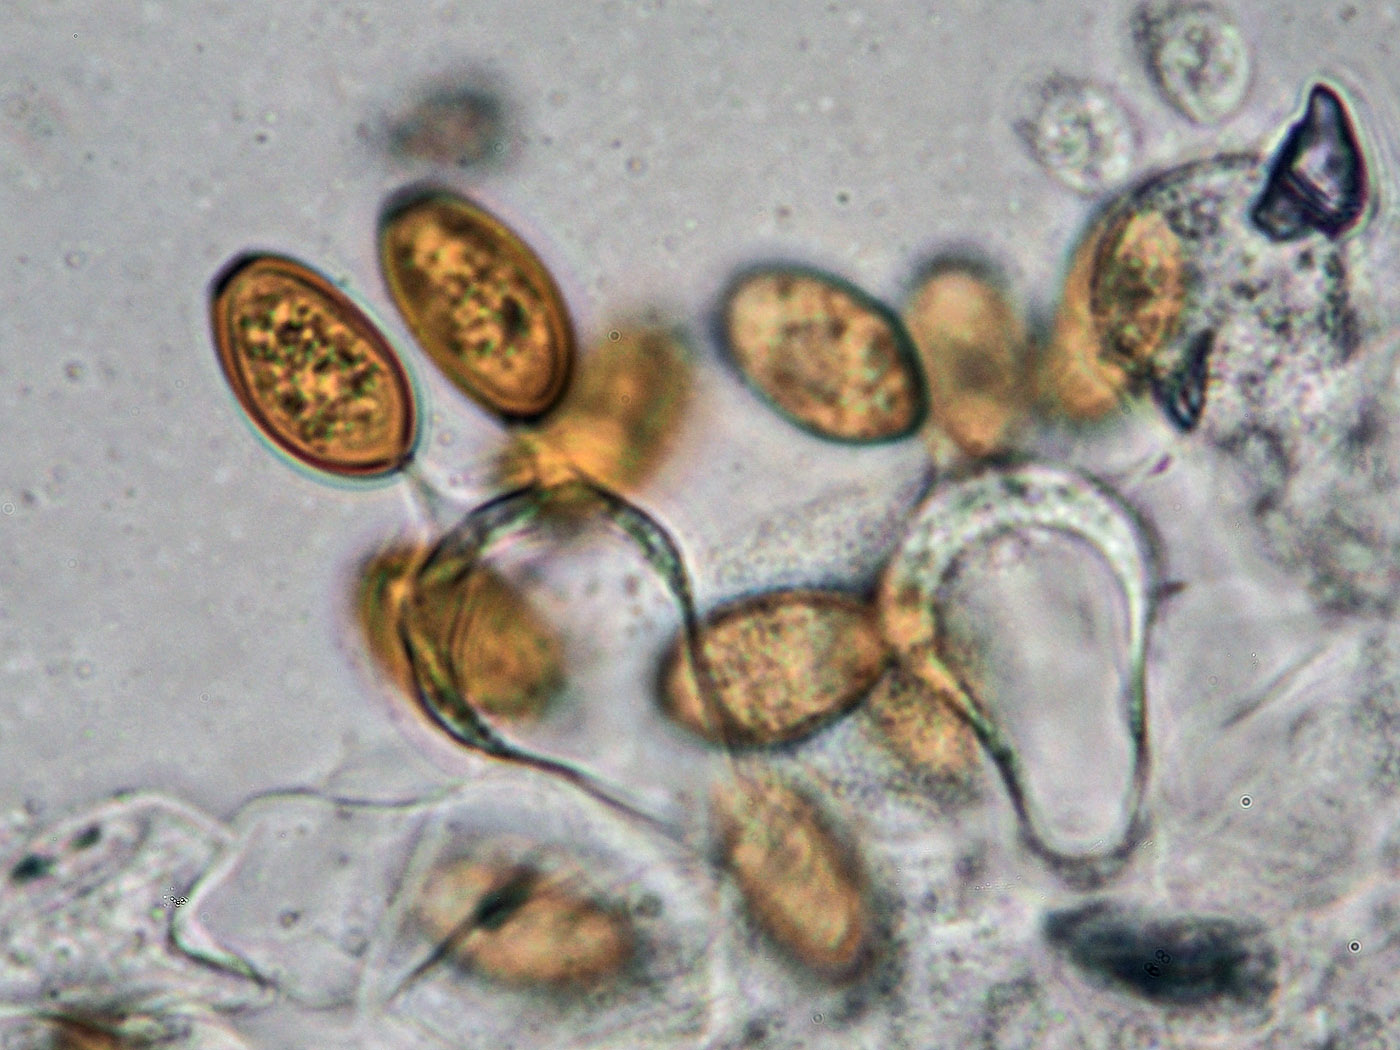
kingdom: Fungi
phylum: Basidiomycota
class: Agaricomycetes
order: Agaricales
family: Bolbitiaceae
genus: Bolbitius
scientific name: Bolbitius titubans
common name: almindelig gulhat
